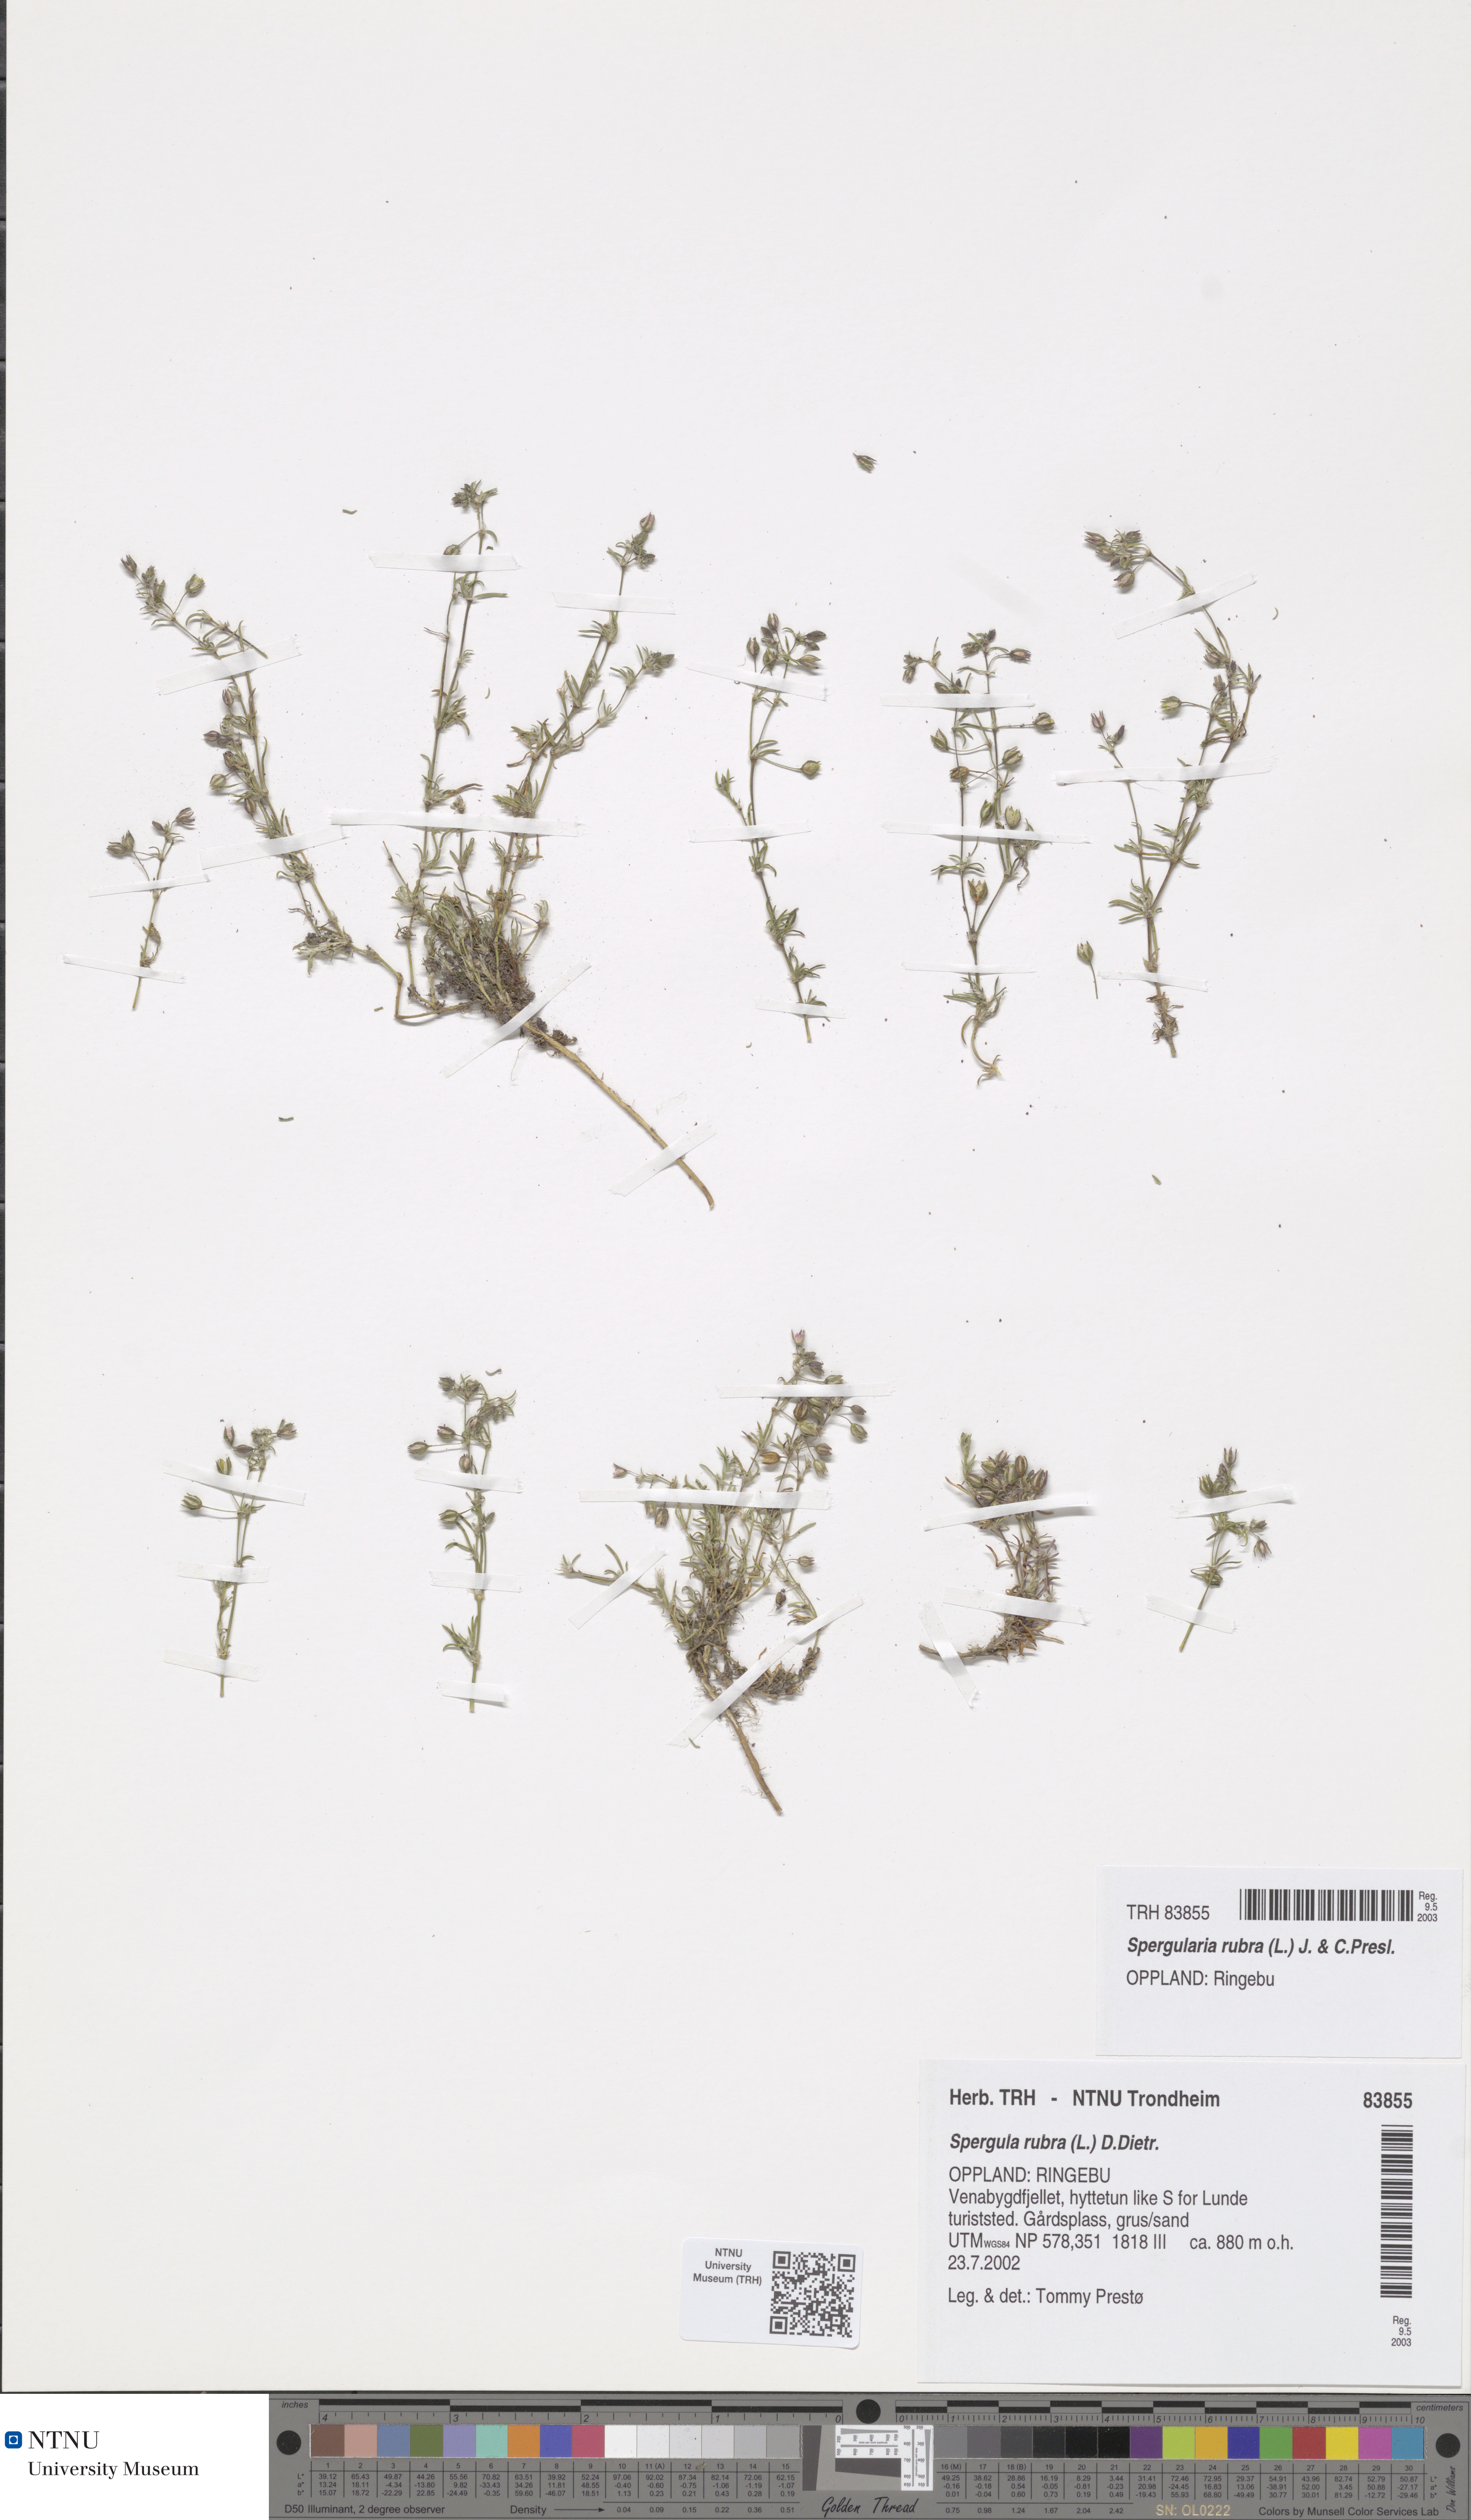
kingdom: Plantae
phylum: Tracheophyta
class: Magnoliopsida
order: Caryophyllales
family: Caryophyllaceae
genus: Spergularia
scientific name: Spergularia rubra
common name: Red sand-spurrey
